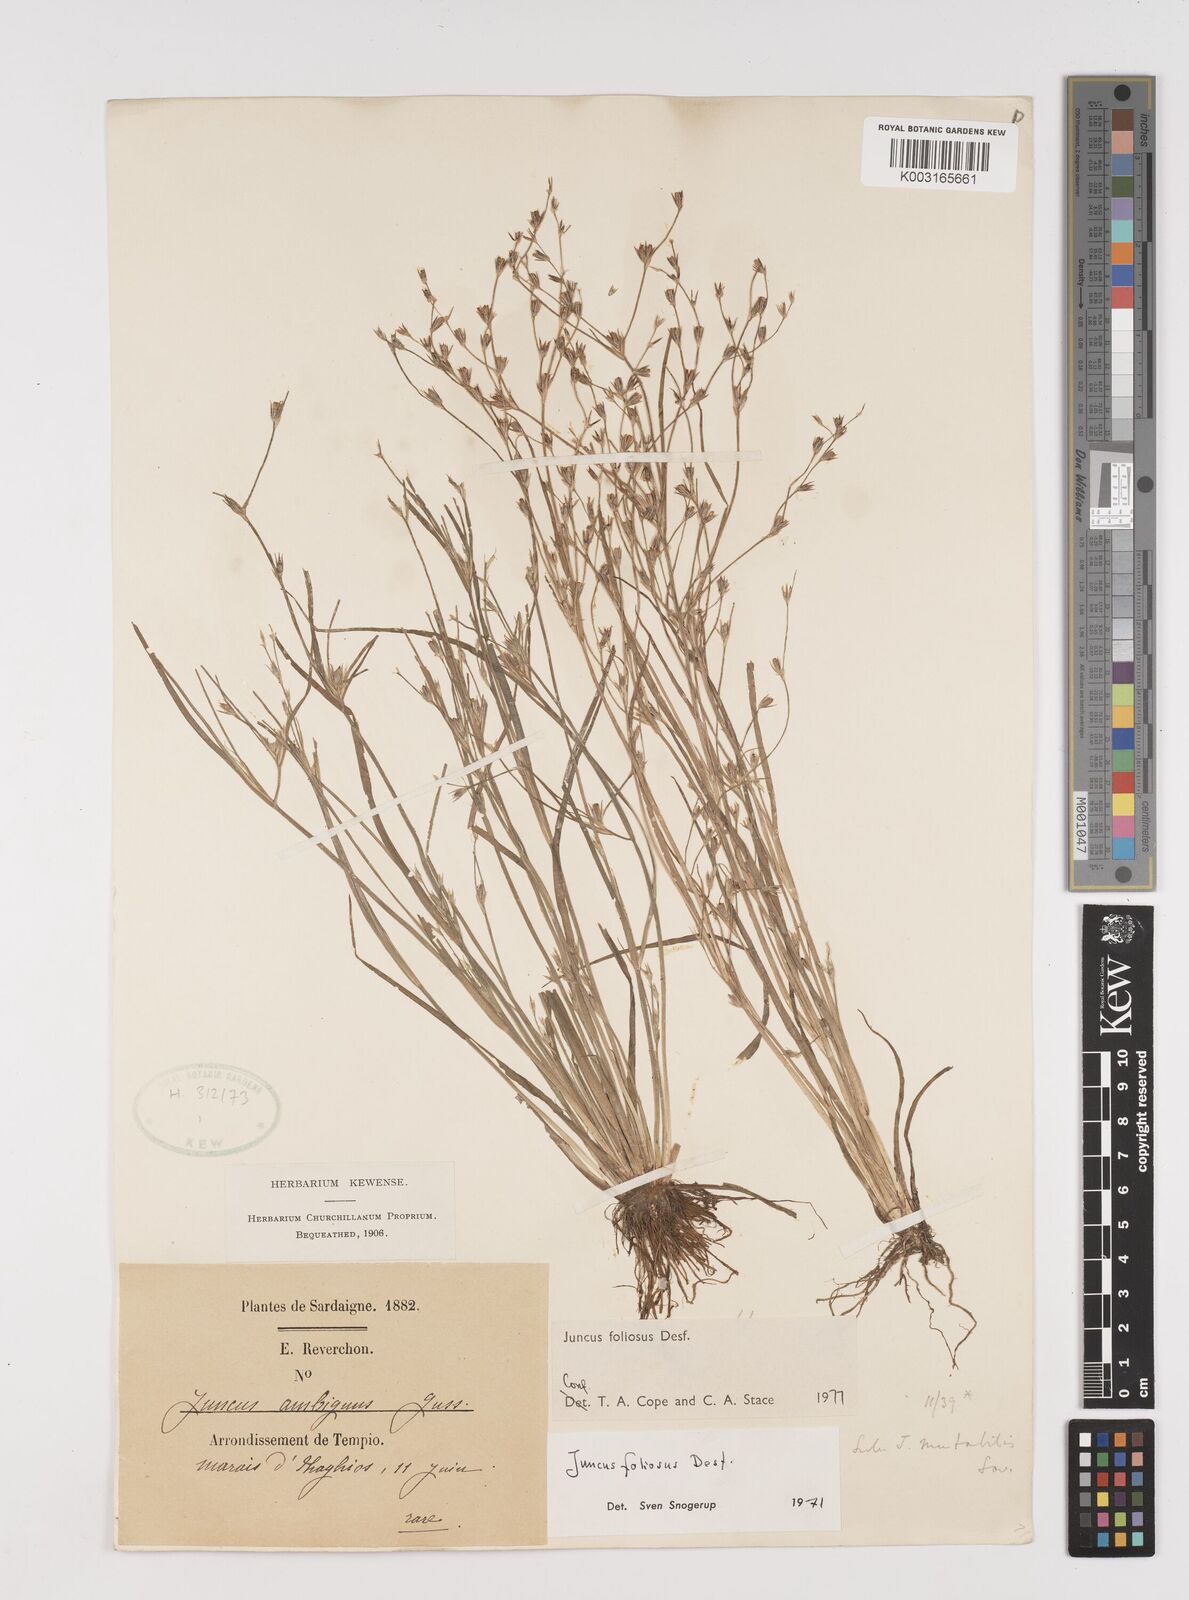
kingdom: Plantae
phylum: Tracheophyta
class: Liliopsida
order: Poales
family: Juncaceae
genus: Juncus
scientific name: Juncus foliosus
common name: Leafy rush
